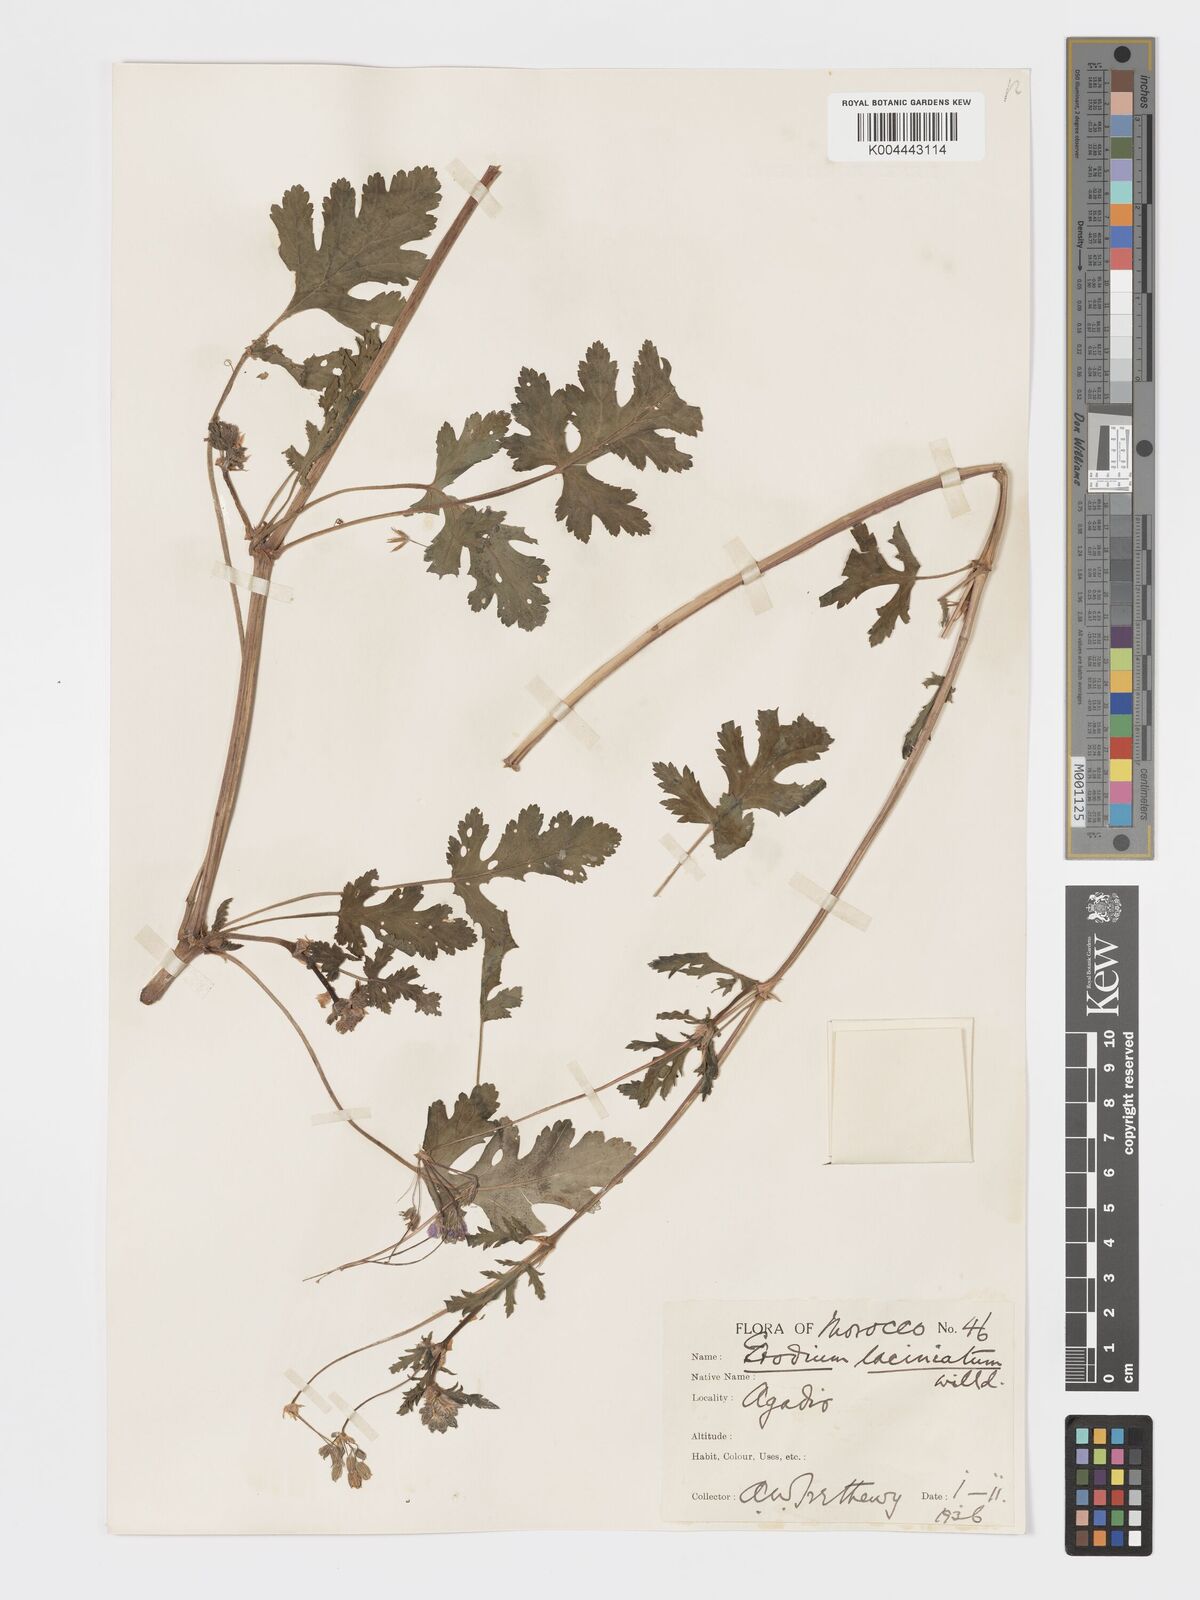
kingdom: Plantae
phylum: Tracheophyta
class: Magnoliopsida
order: Geraniales
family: Geraniaceae
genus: Erodium
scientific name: Erodium hesperium
